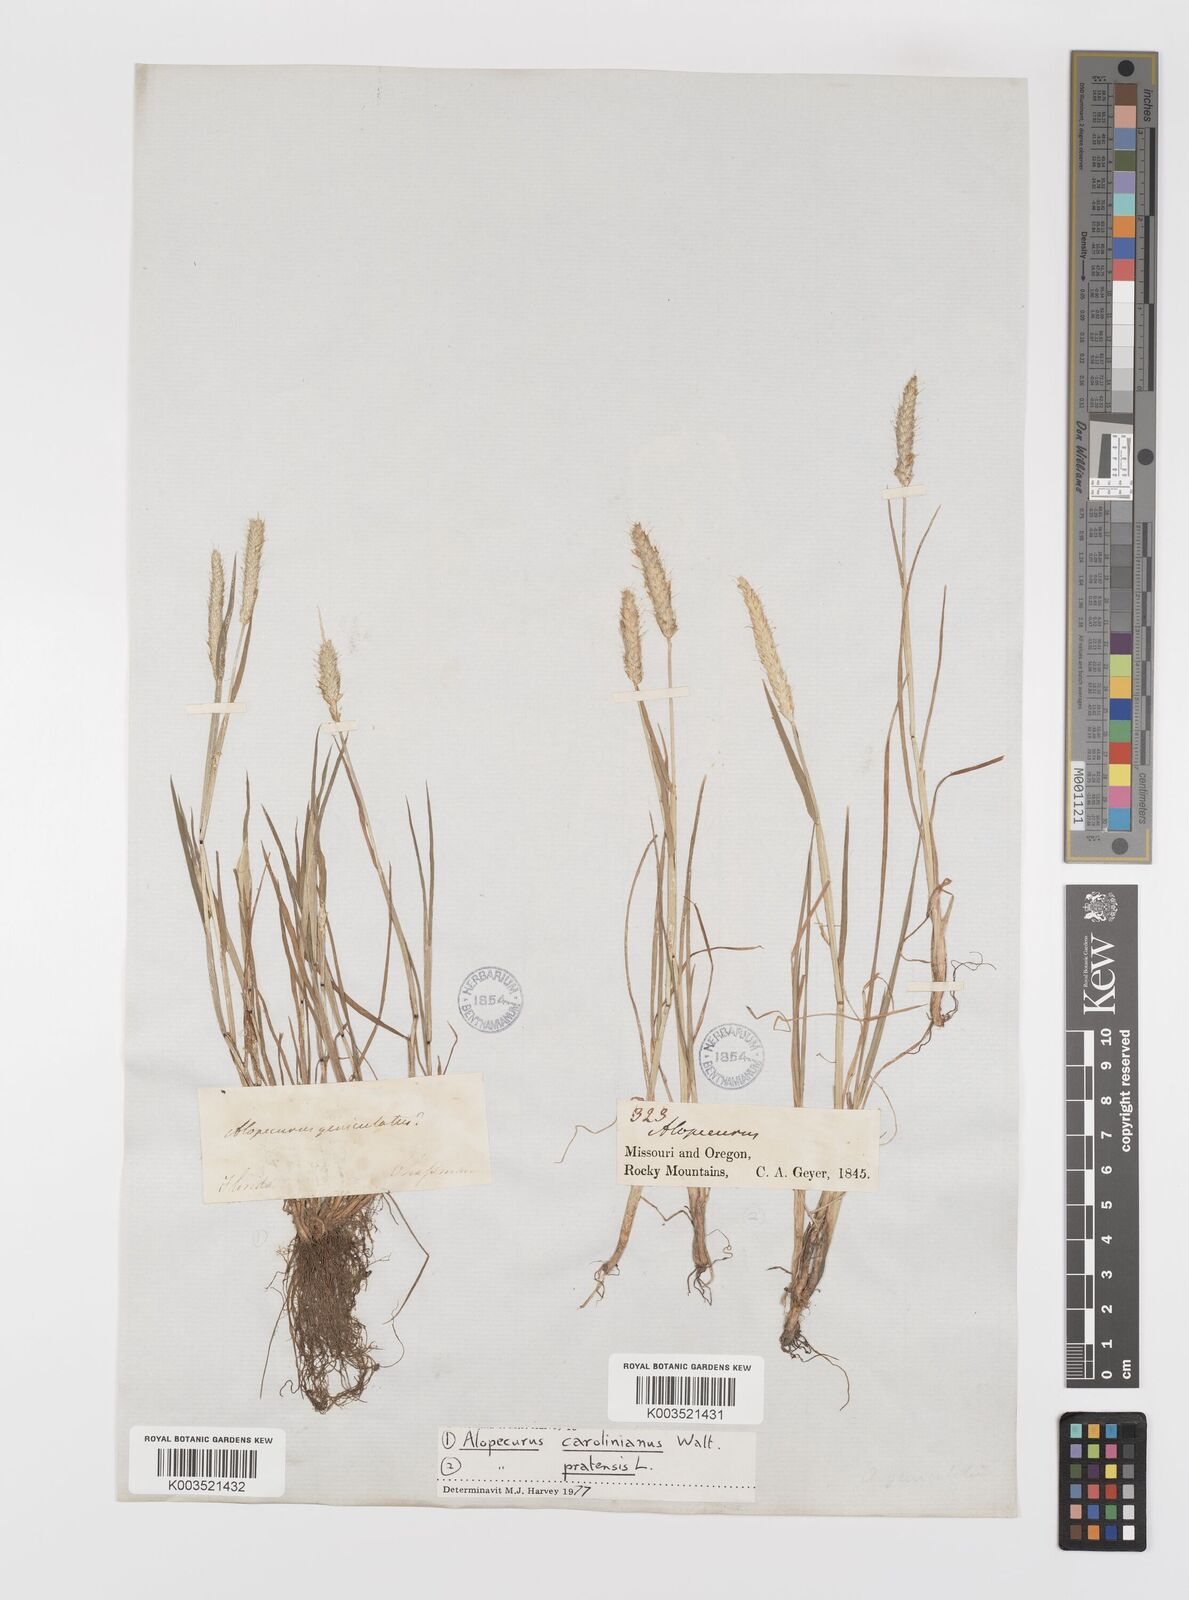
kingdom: Plantae
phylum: Tracheophyta
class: Liliopsida
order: Poales
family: Poaceae
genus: Alopecurus
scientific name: Alopecurus carolinianus
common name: Tufted foxtail
